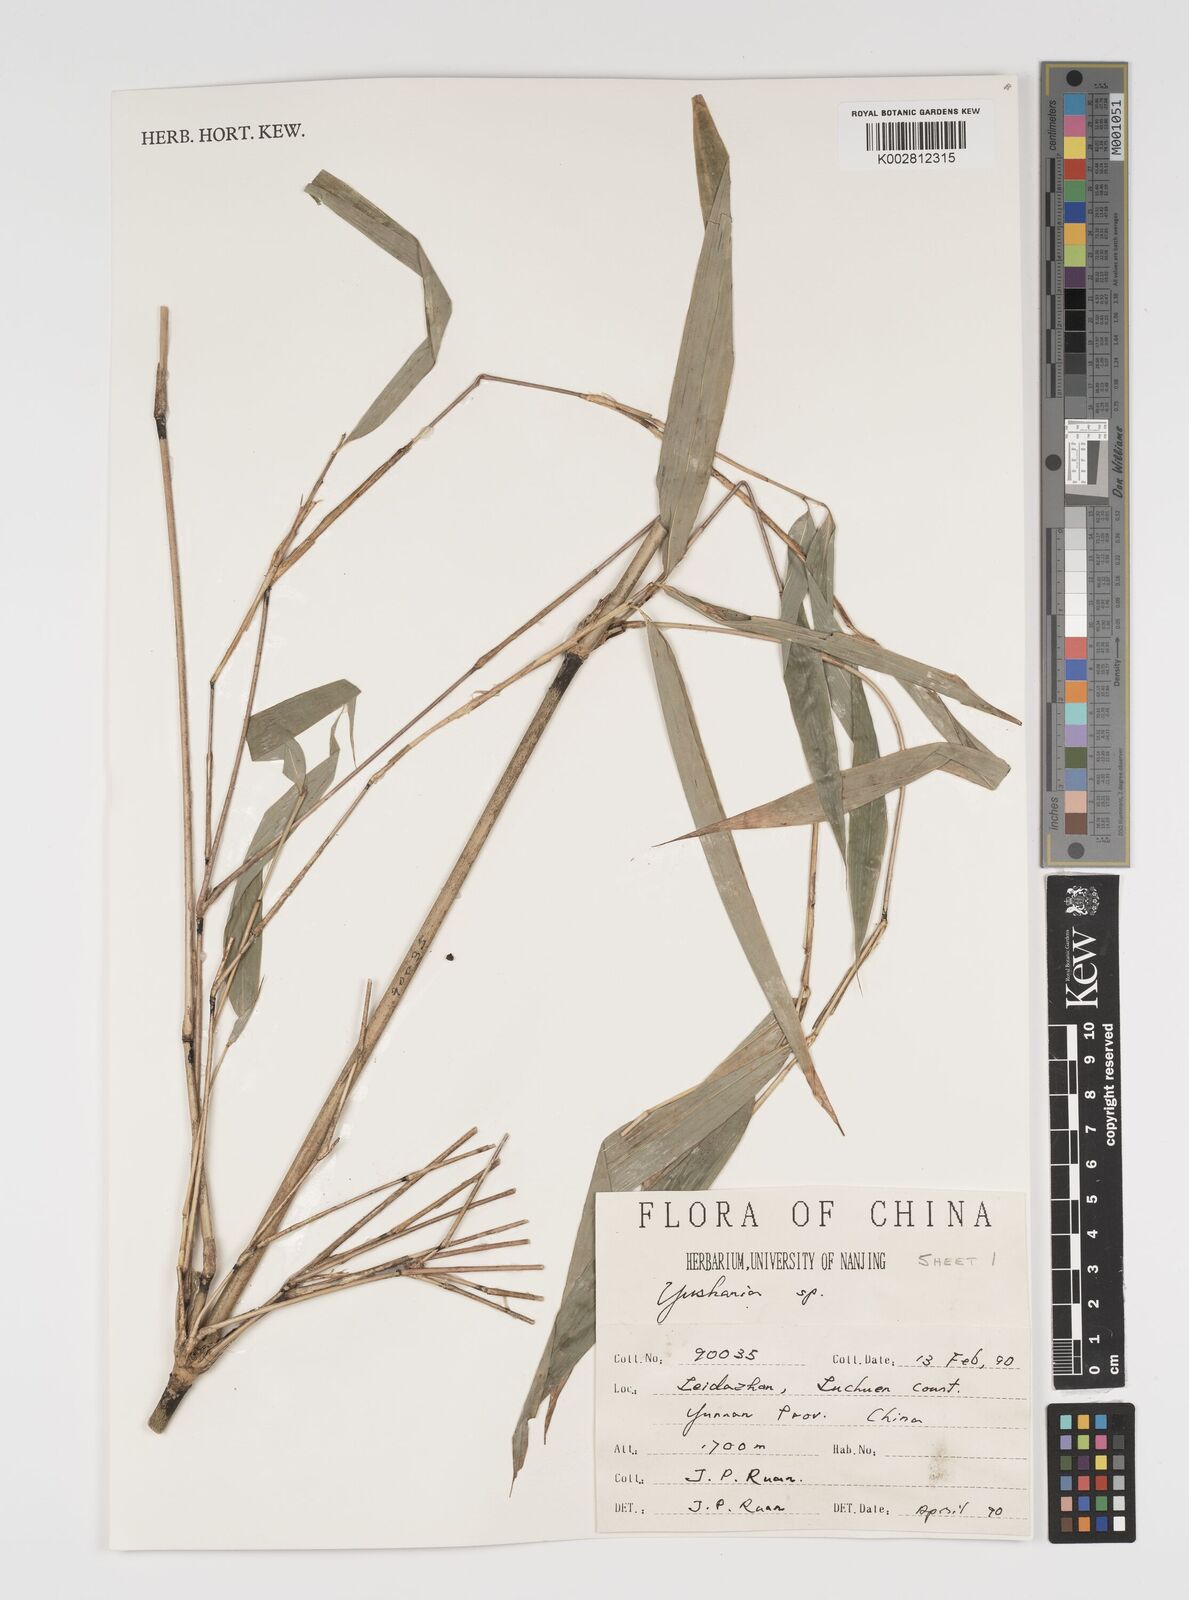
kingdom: Plantae
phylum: Tracheophyta
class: Liliopsida
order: Poales
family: Poaceae
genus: Yushania
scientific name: Yushania
